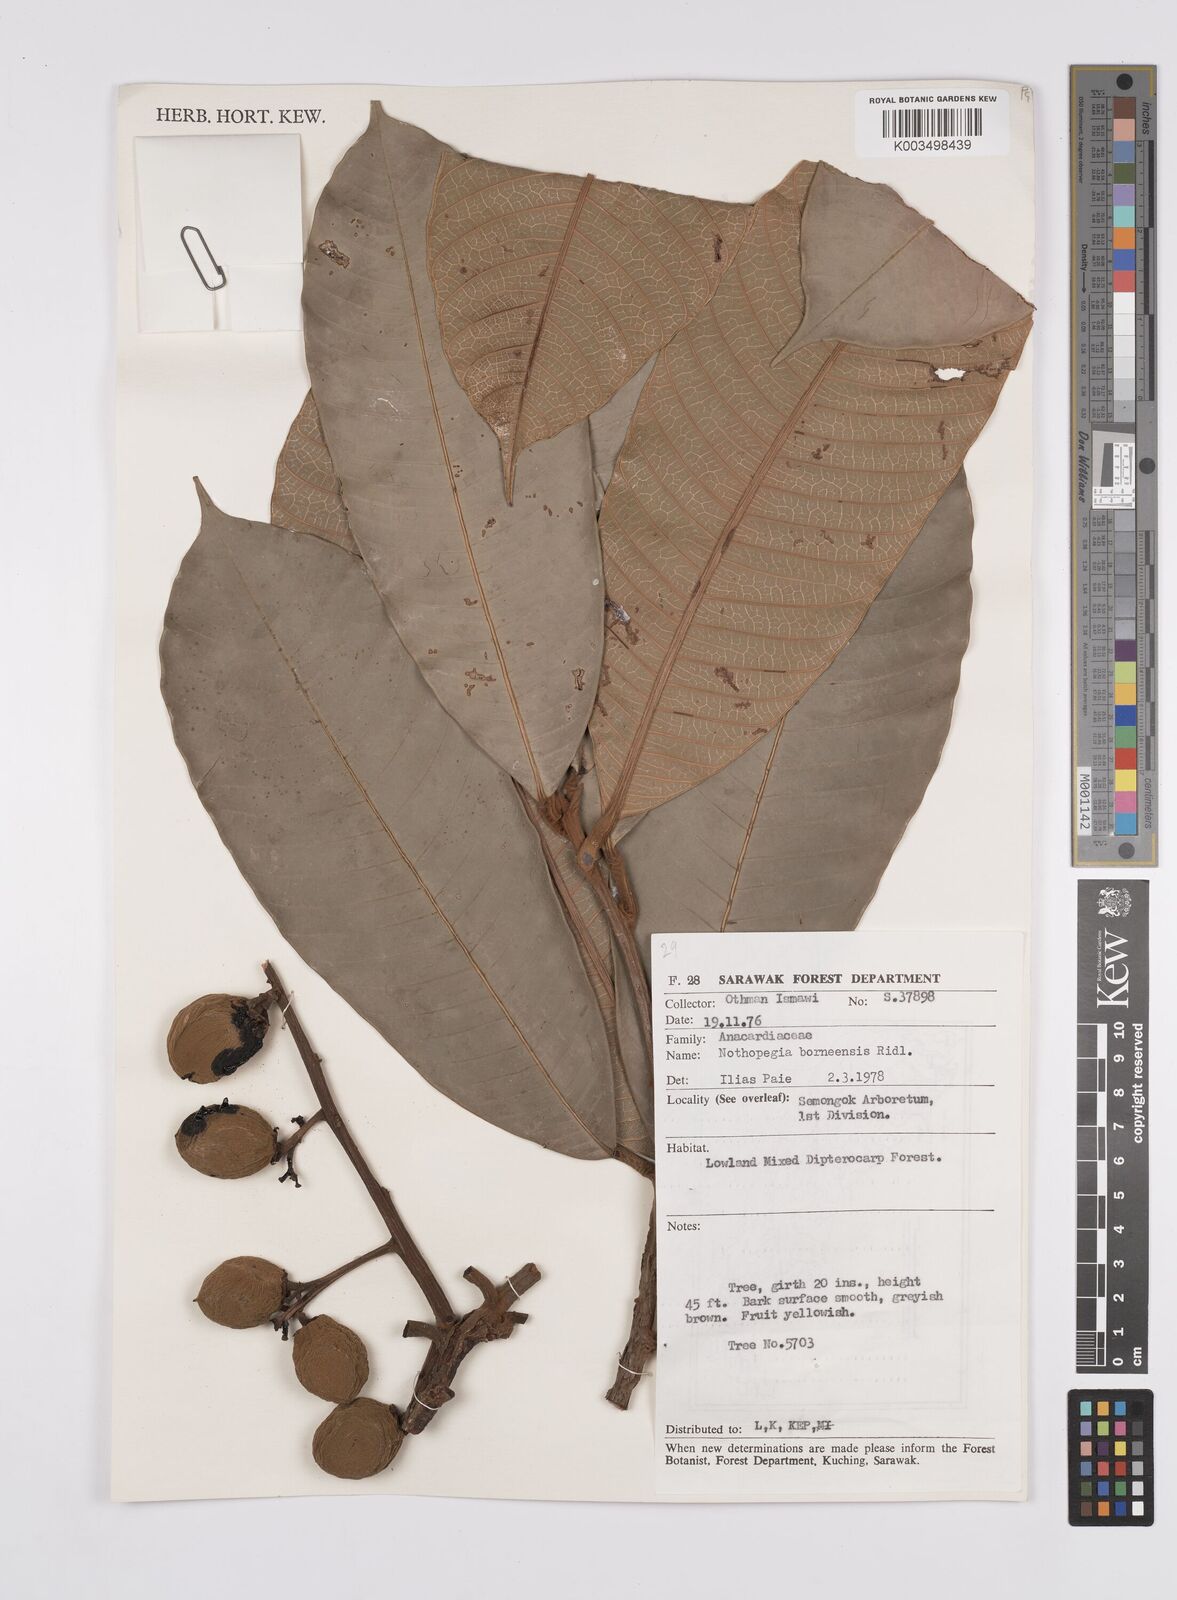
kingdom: Plantae
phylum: Tracheophyta
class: Magnoliopsida
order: Sapindales
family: Anacardiaceae
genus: Melanochyla
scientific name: Melanochyla borneensis
